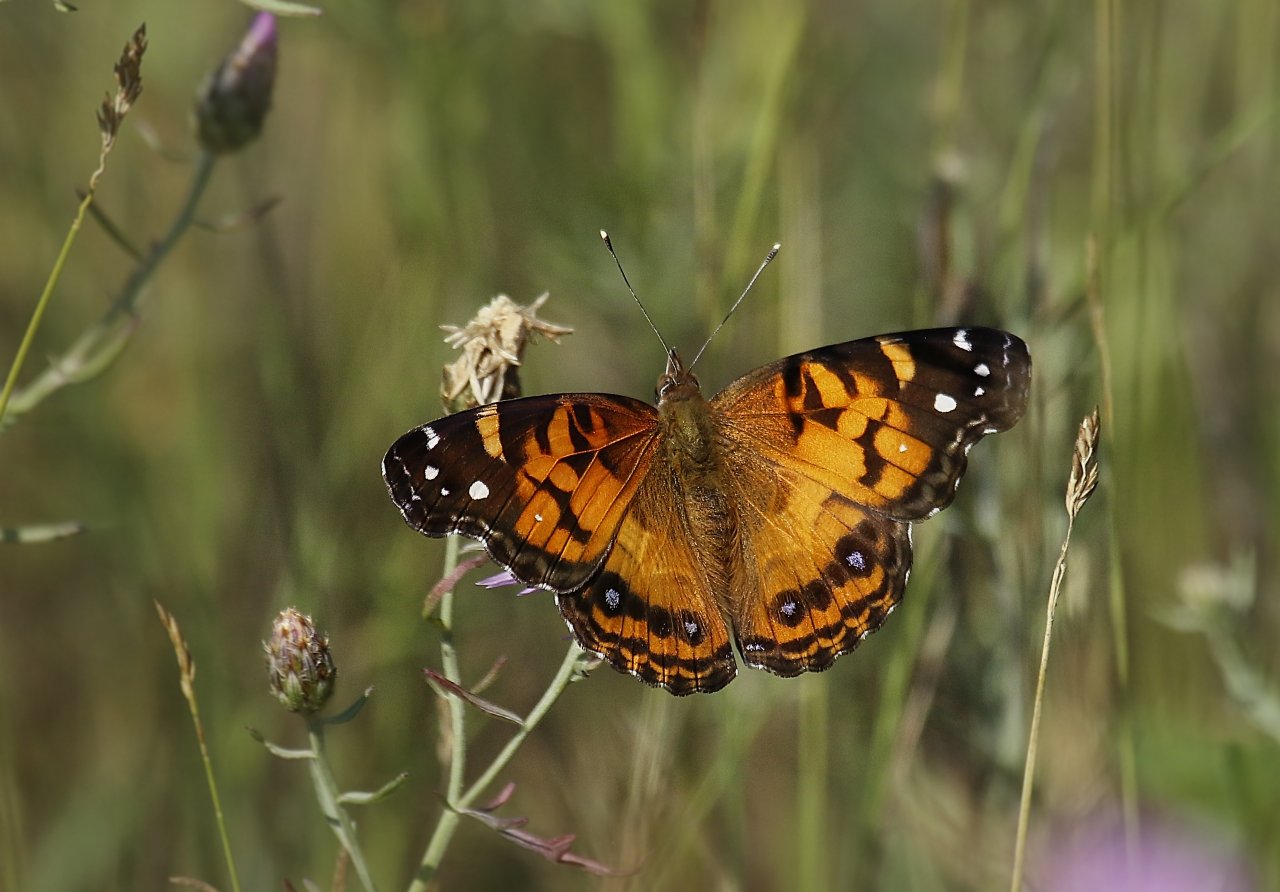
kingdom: Animalia
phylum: Arthropoda
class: Insecta
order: Lepidoptera
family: Nymphalidae
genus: Vanessa
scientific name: Vanessa virginiensis
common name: American Lady
